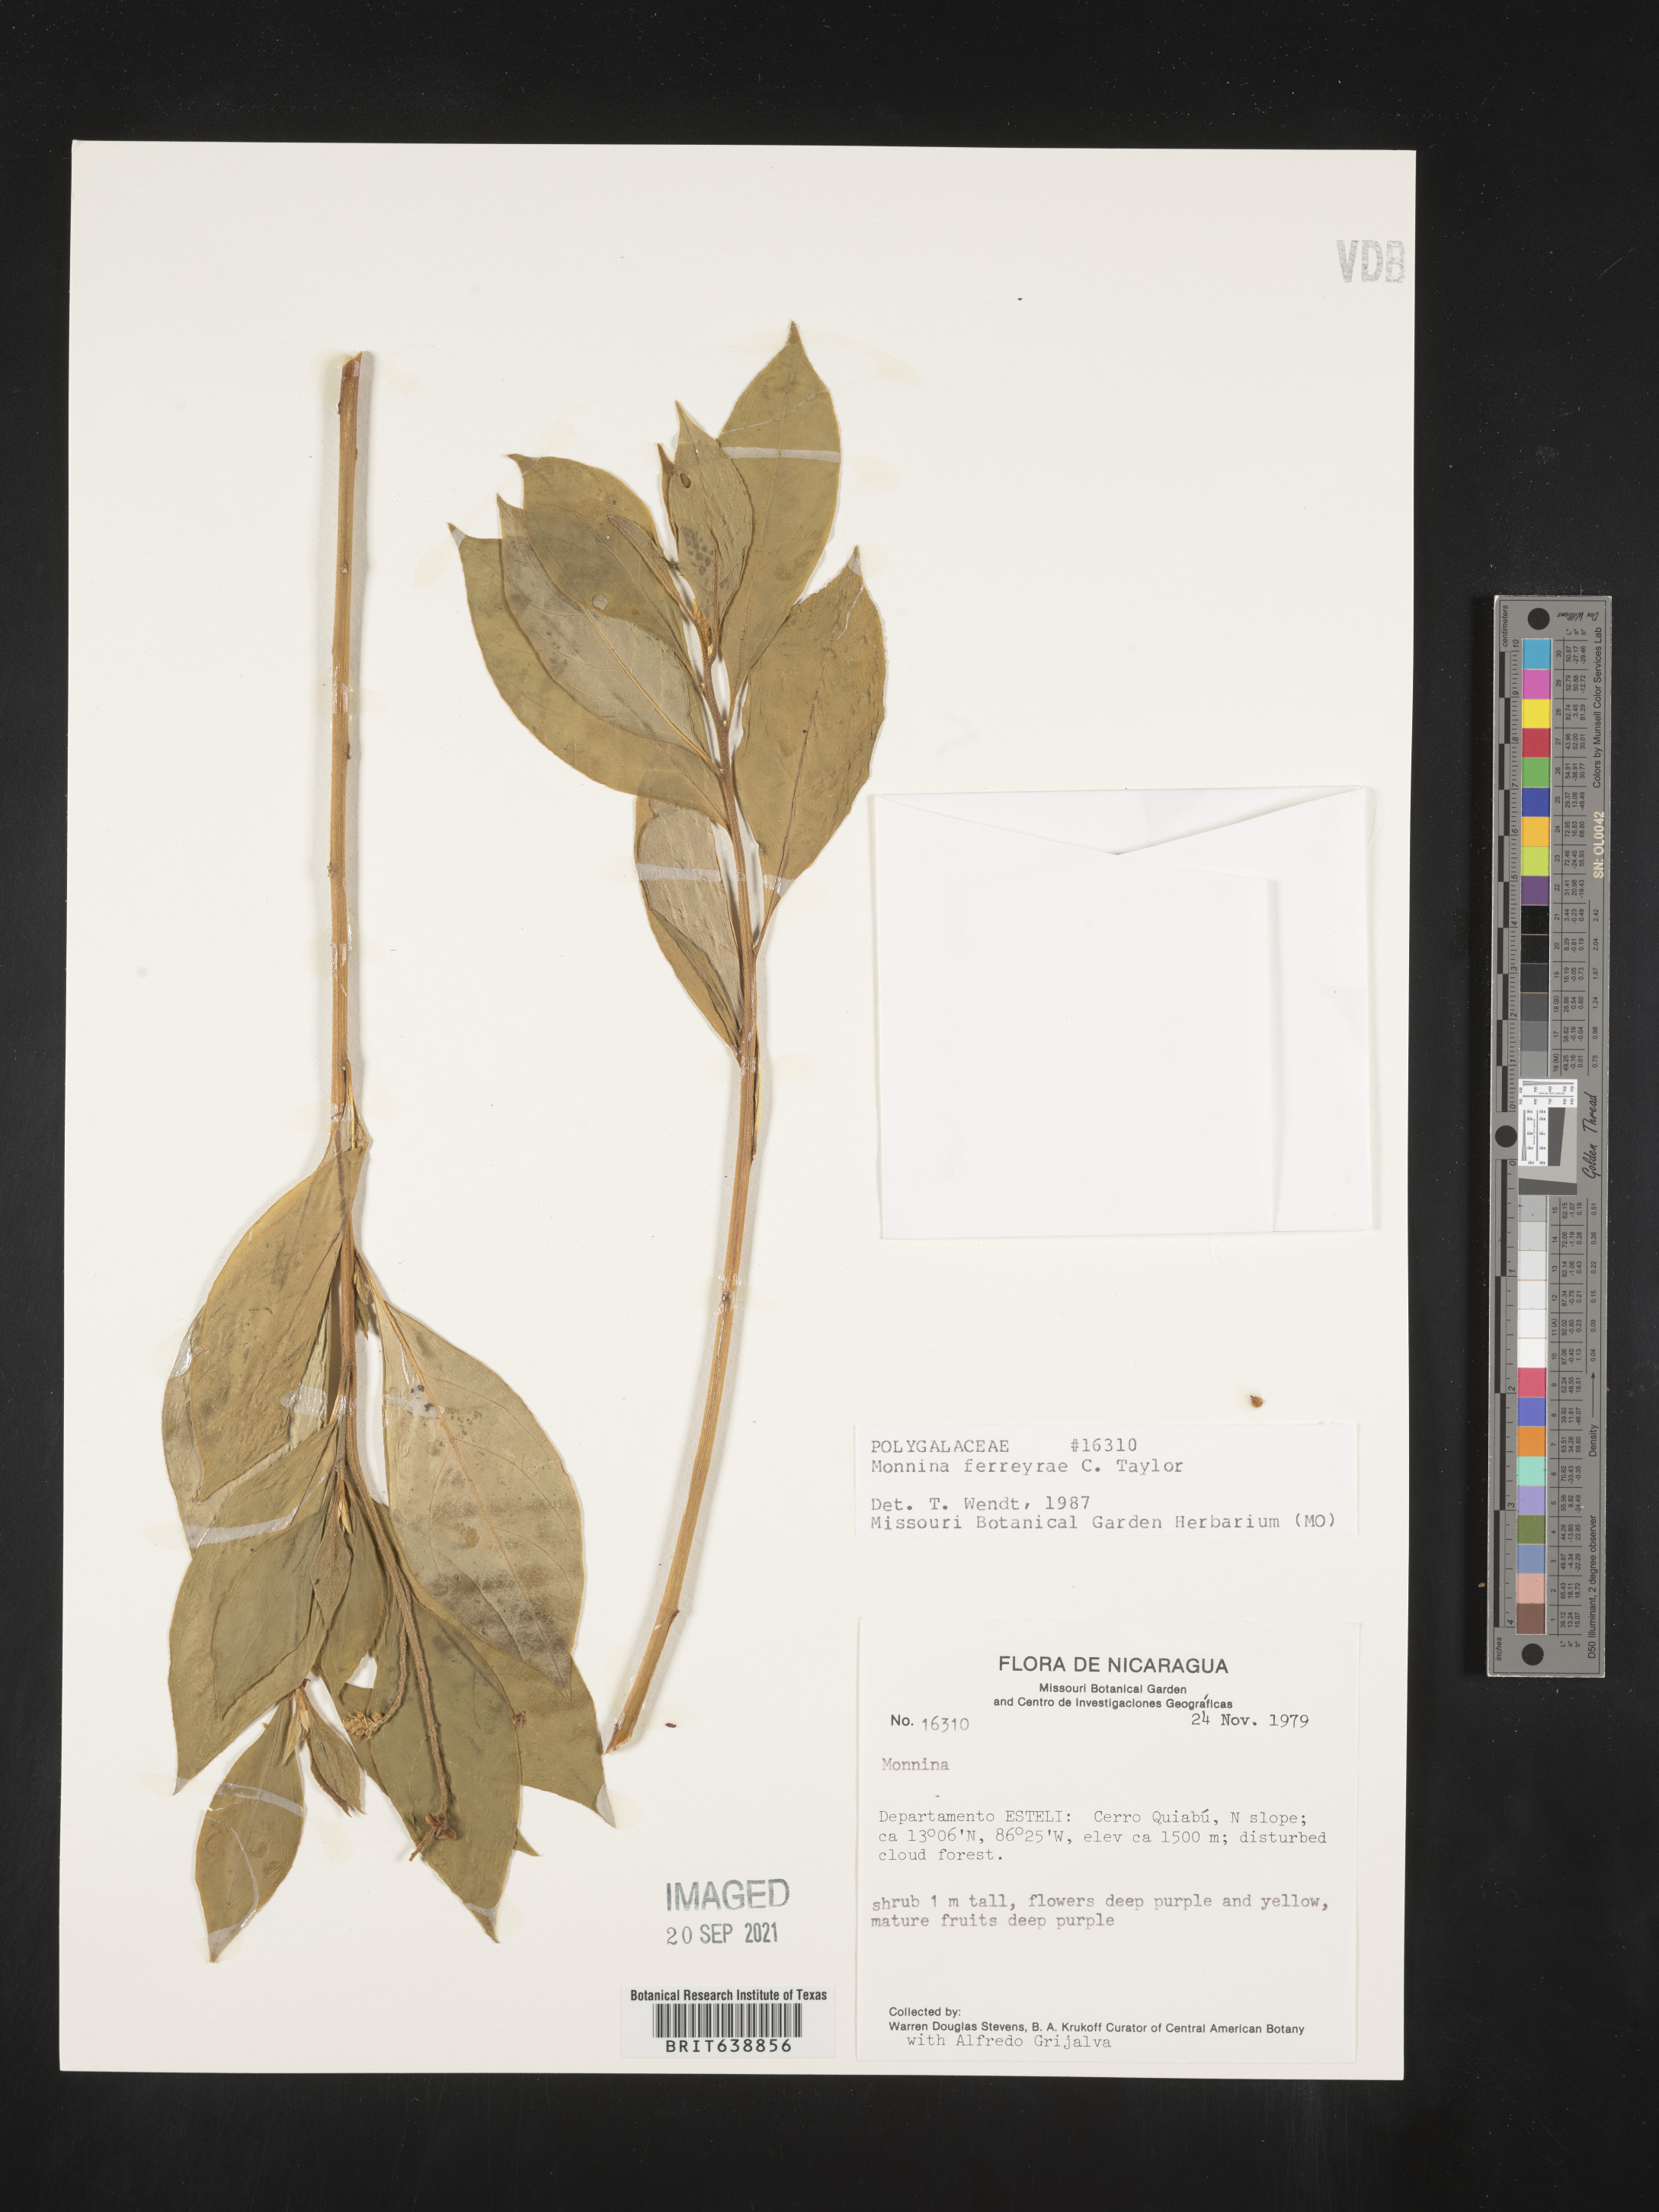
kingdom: Plantae
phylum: Tracheophyta
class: Magnoliopsida
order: Fabales
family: Polygalaceae
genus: Monnina
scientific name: Monnina
